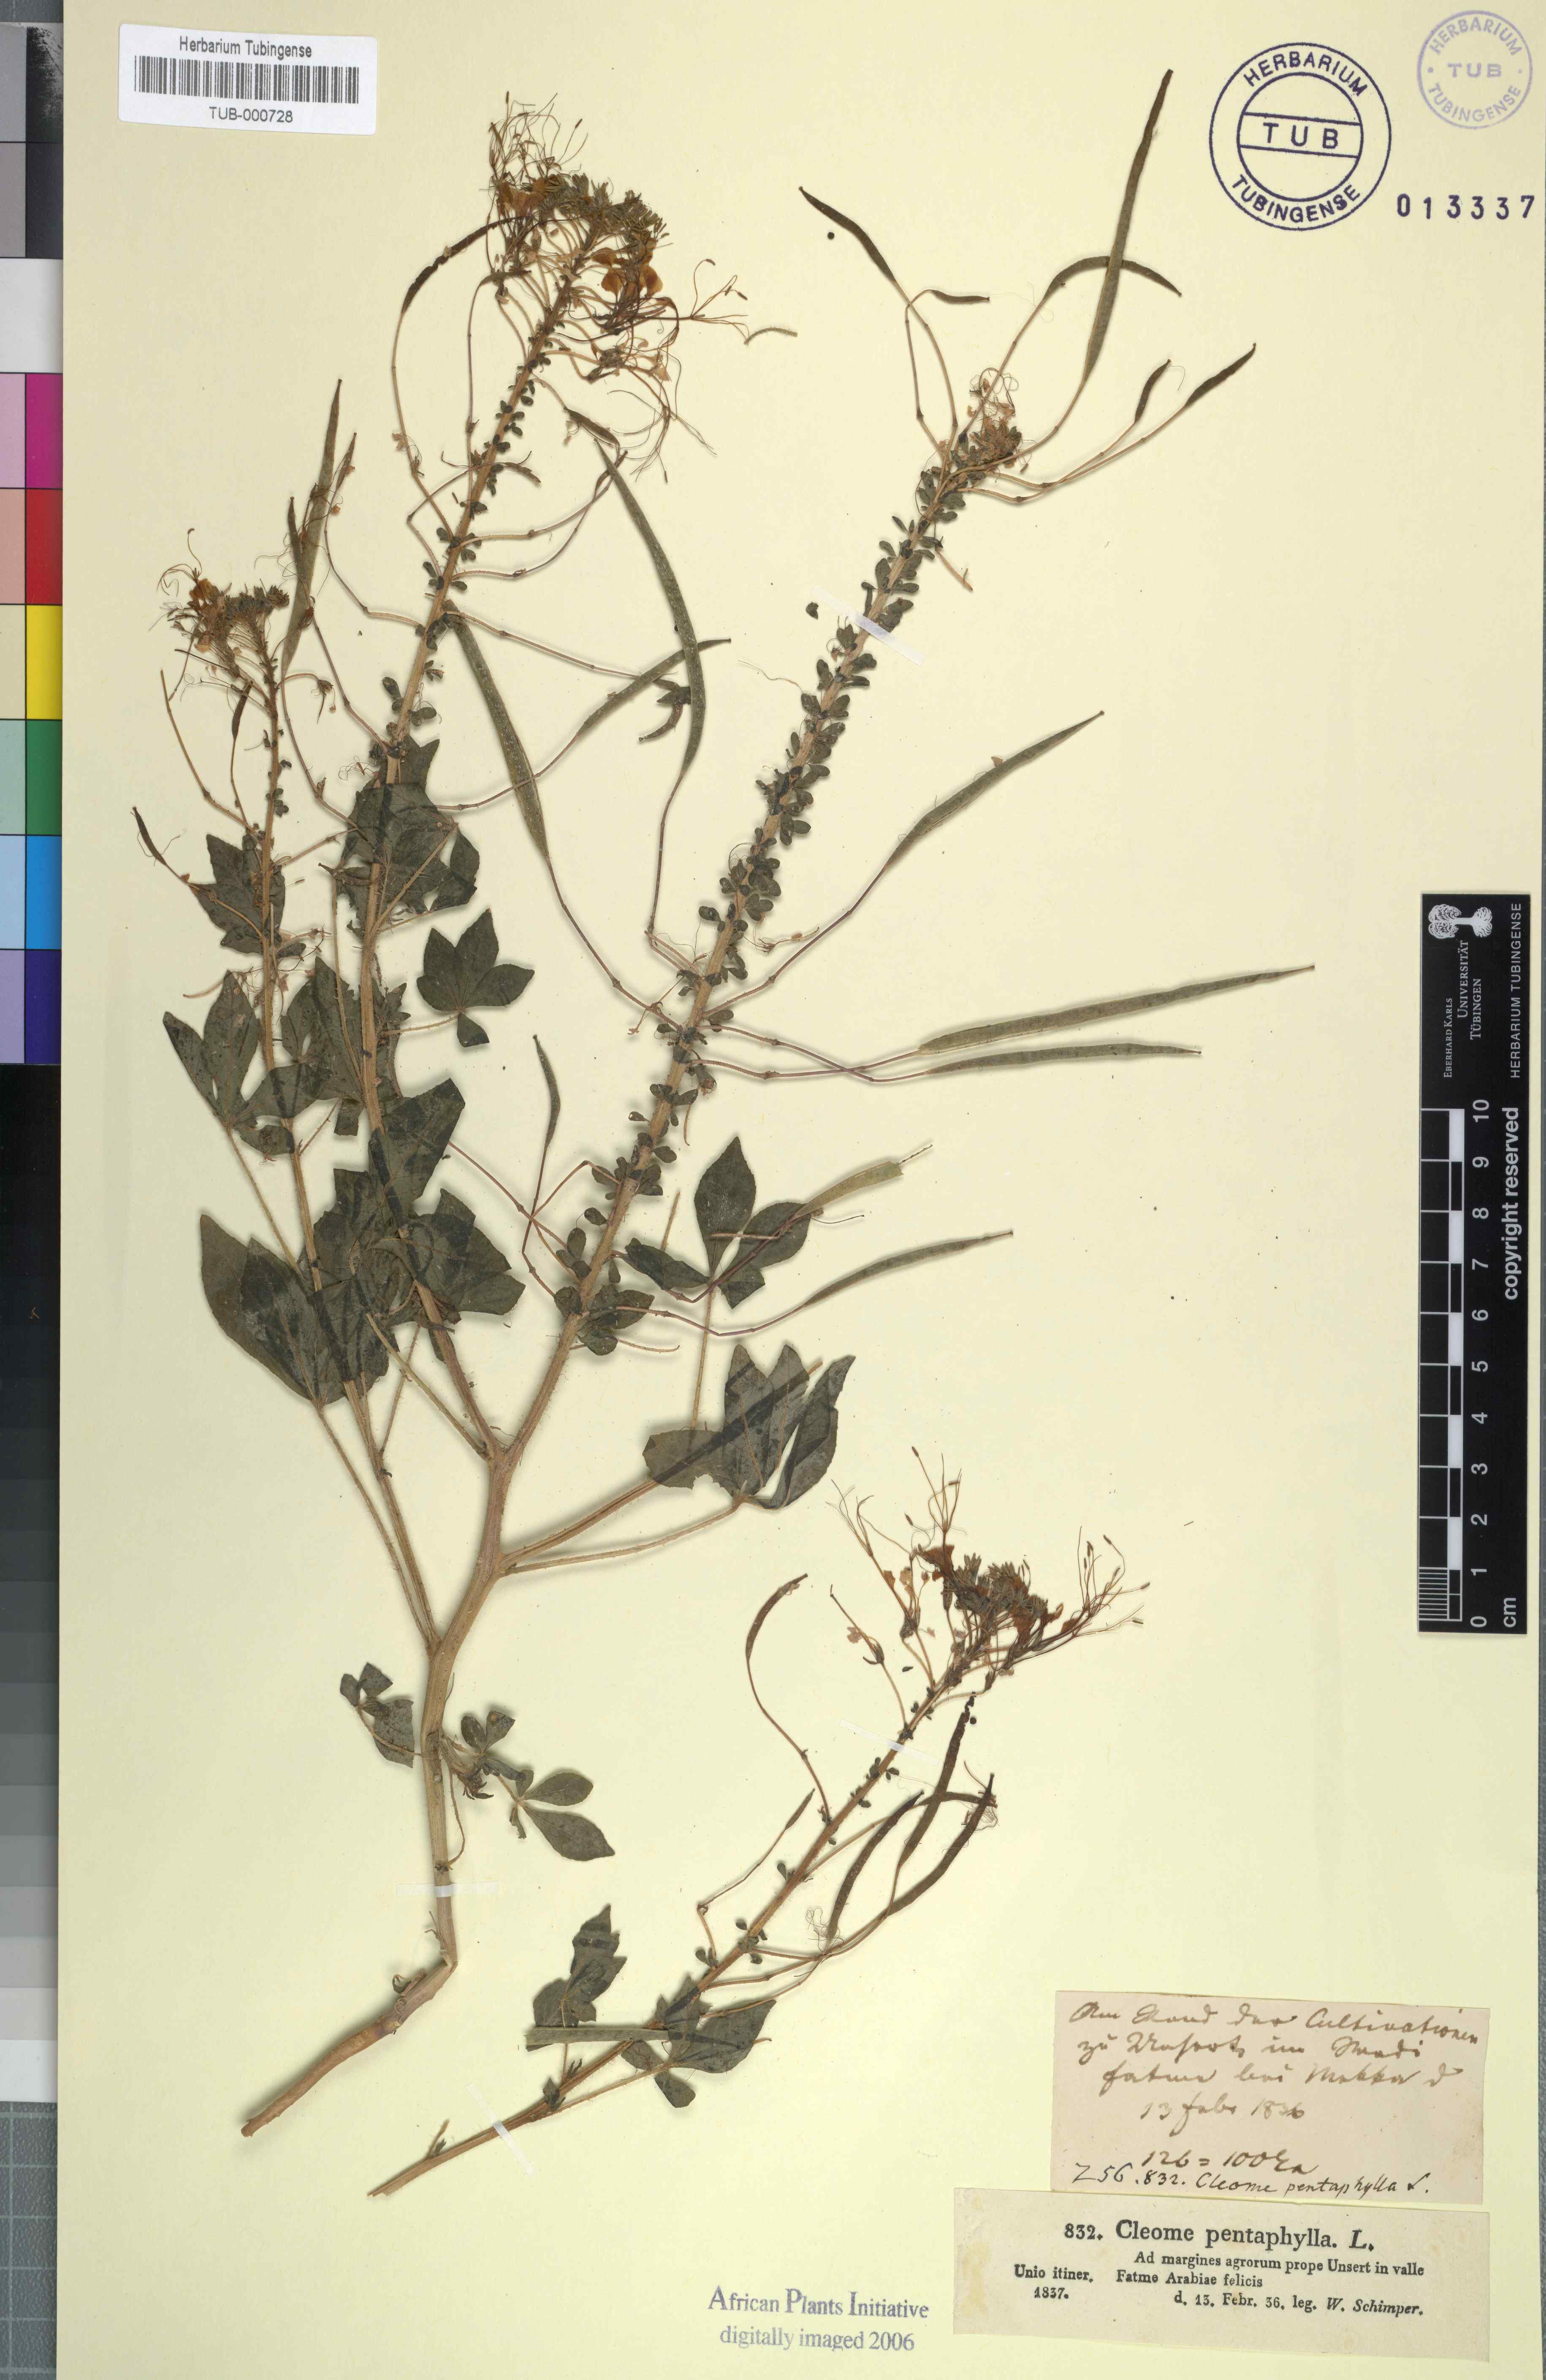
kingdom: Plantae
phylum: Tracheophyta
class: Magnoliopsida
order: Brassicales
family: Cleomaceae
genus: Gynandropsis
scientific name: Gynandropsis gynandra
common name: Spiderwisp
